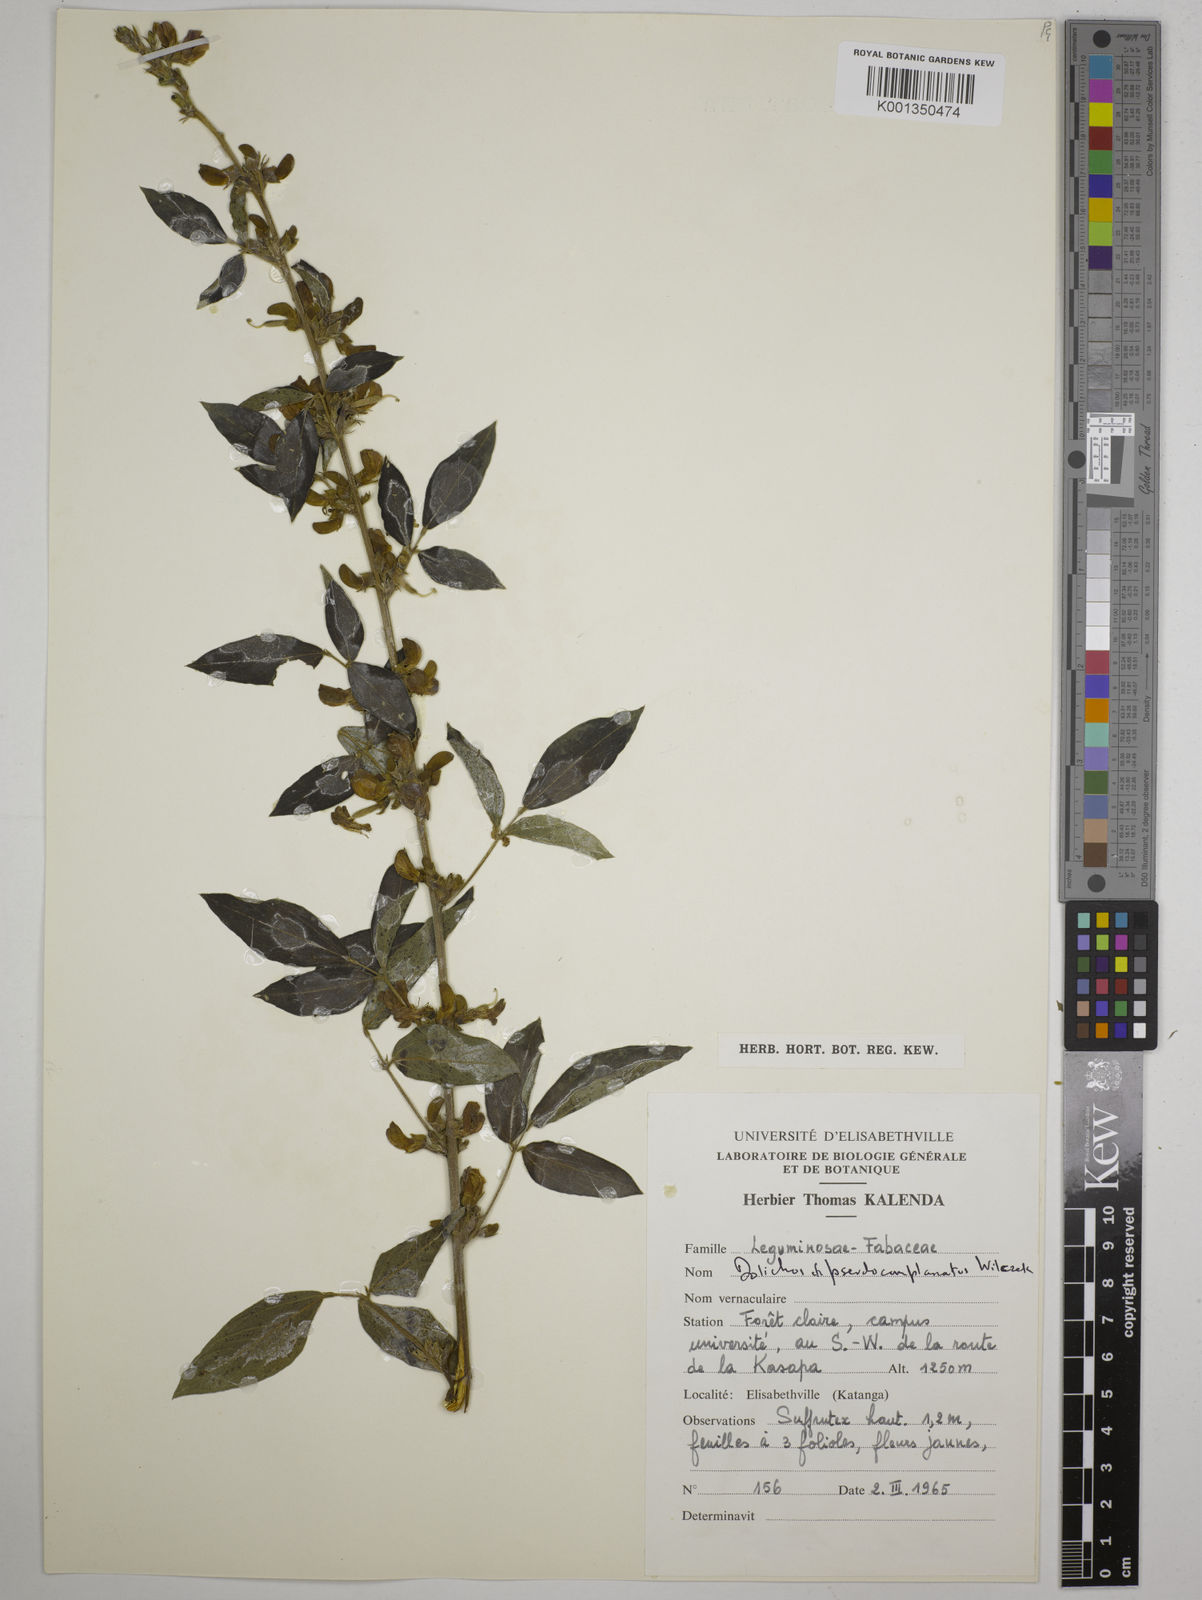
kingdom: Plantae
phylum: Tracheophyta
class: Magnoliopsida
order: Fabales
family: Fabaceae
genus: Dolichos
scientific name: Dolichos pseudocomplanatus
